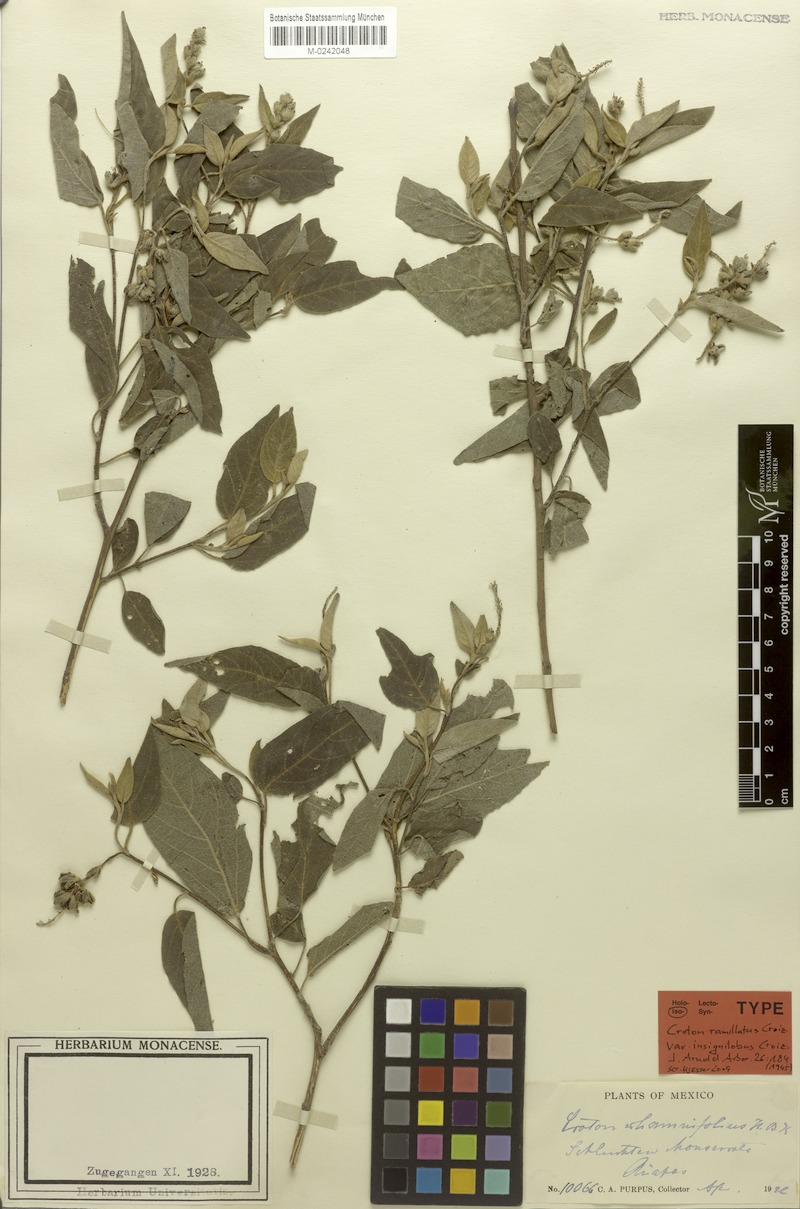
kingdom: Plantae
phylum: Tracheophyta
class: Magnoliopsida
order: Malpighiales
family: Euphorbiaceae
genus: Croton
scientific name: Croton ramillatus
